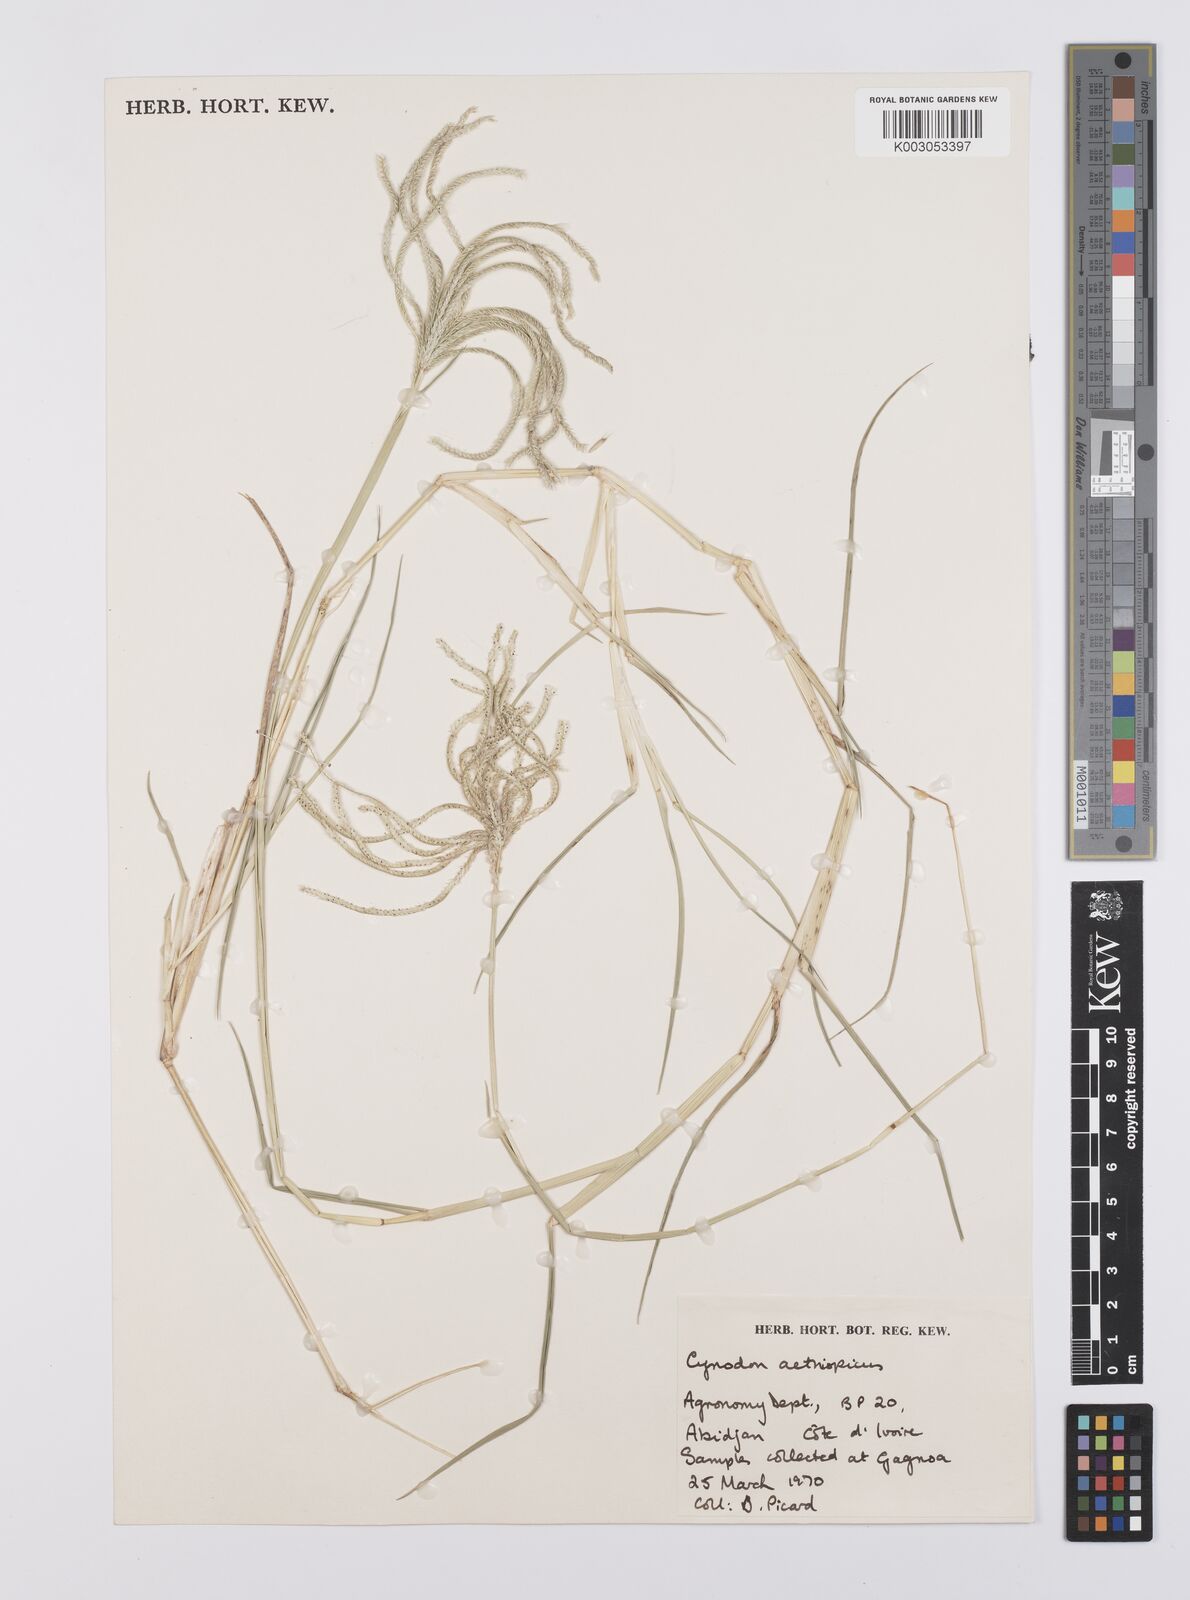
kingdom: Plantae
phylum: Tracheophyta
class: Liliopsida
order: Poales
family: Poaceae
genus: Cynodon
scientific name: Cynodon dactylon
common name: Bermuda grass
